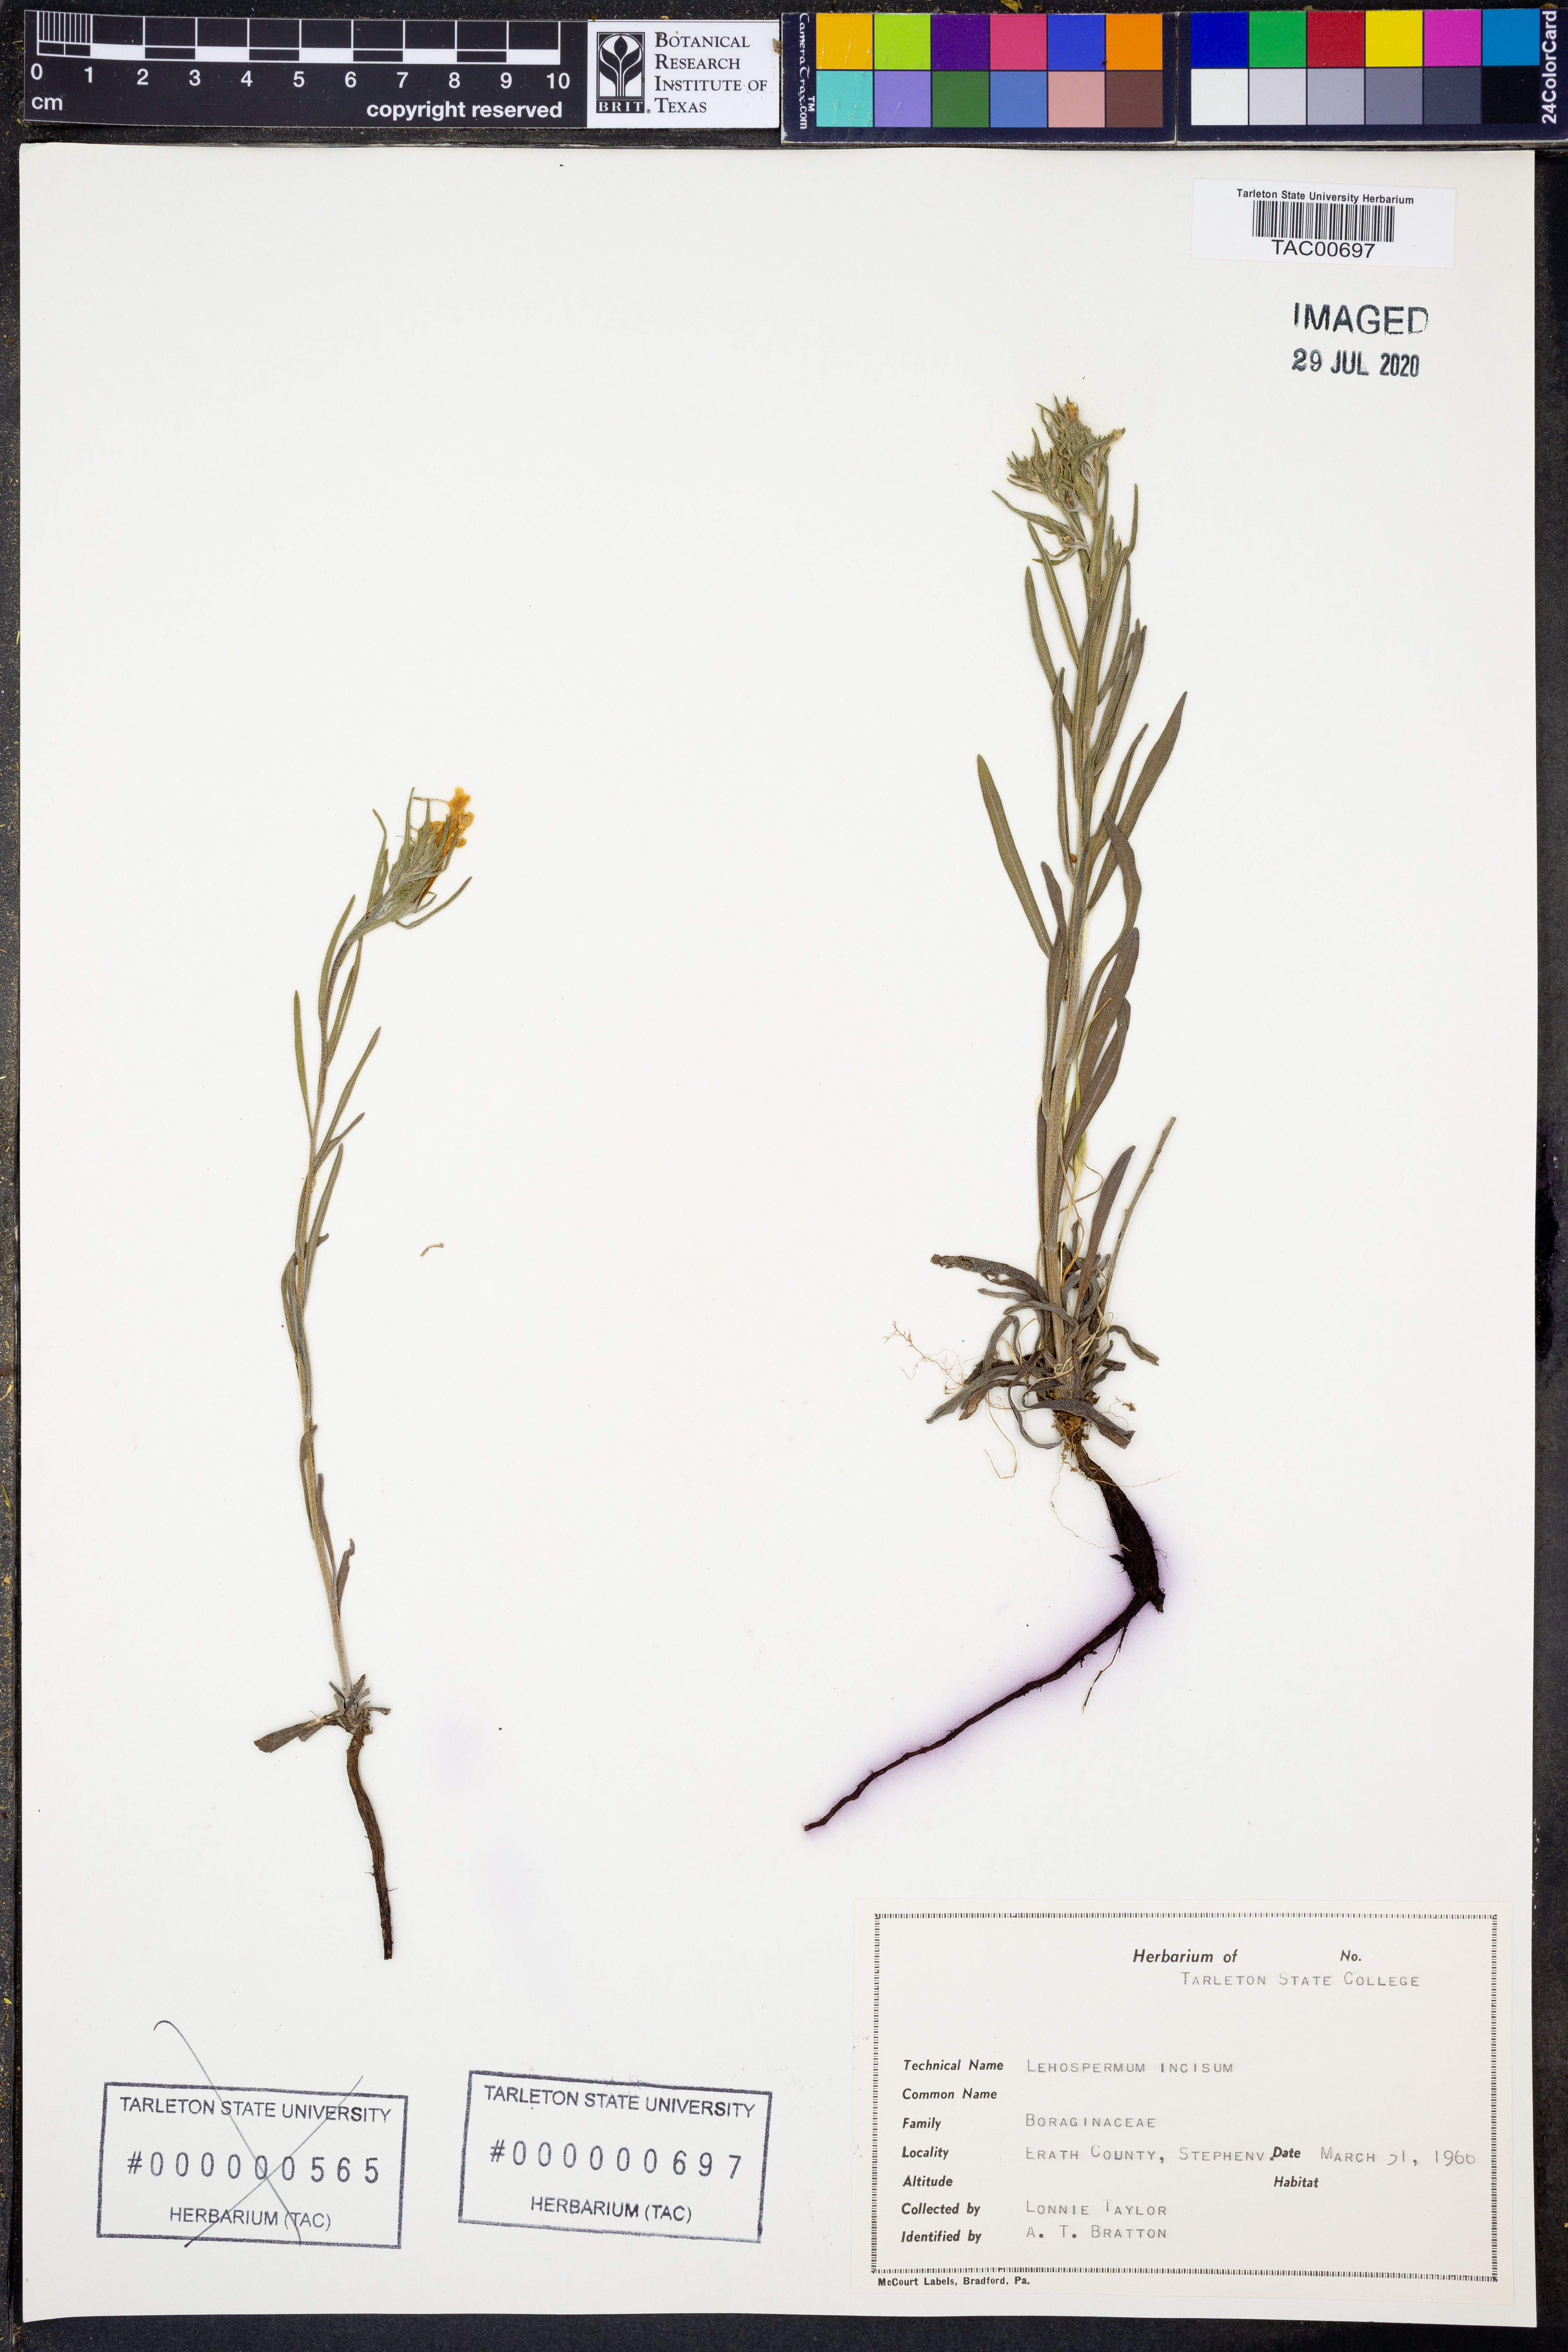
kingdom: Plantae
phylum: Tracheophyta
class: Magnoliopsida
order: Boraginales
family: Boraginaceae
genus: Lithospermum
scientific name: Lithospermum incisum
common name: Fringed gromwell
